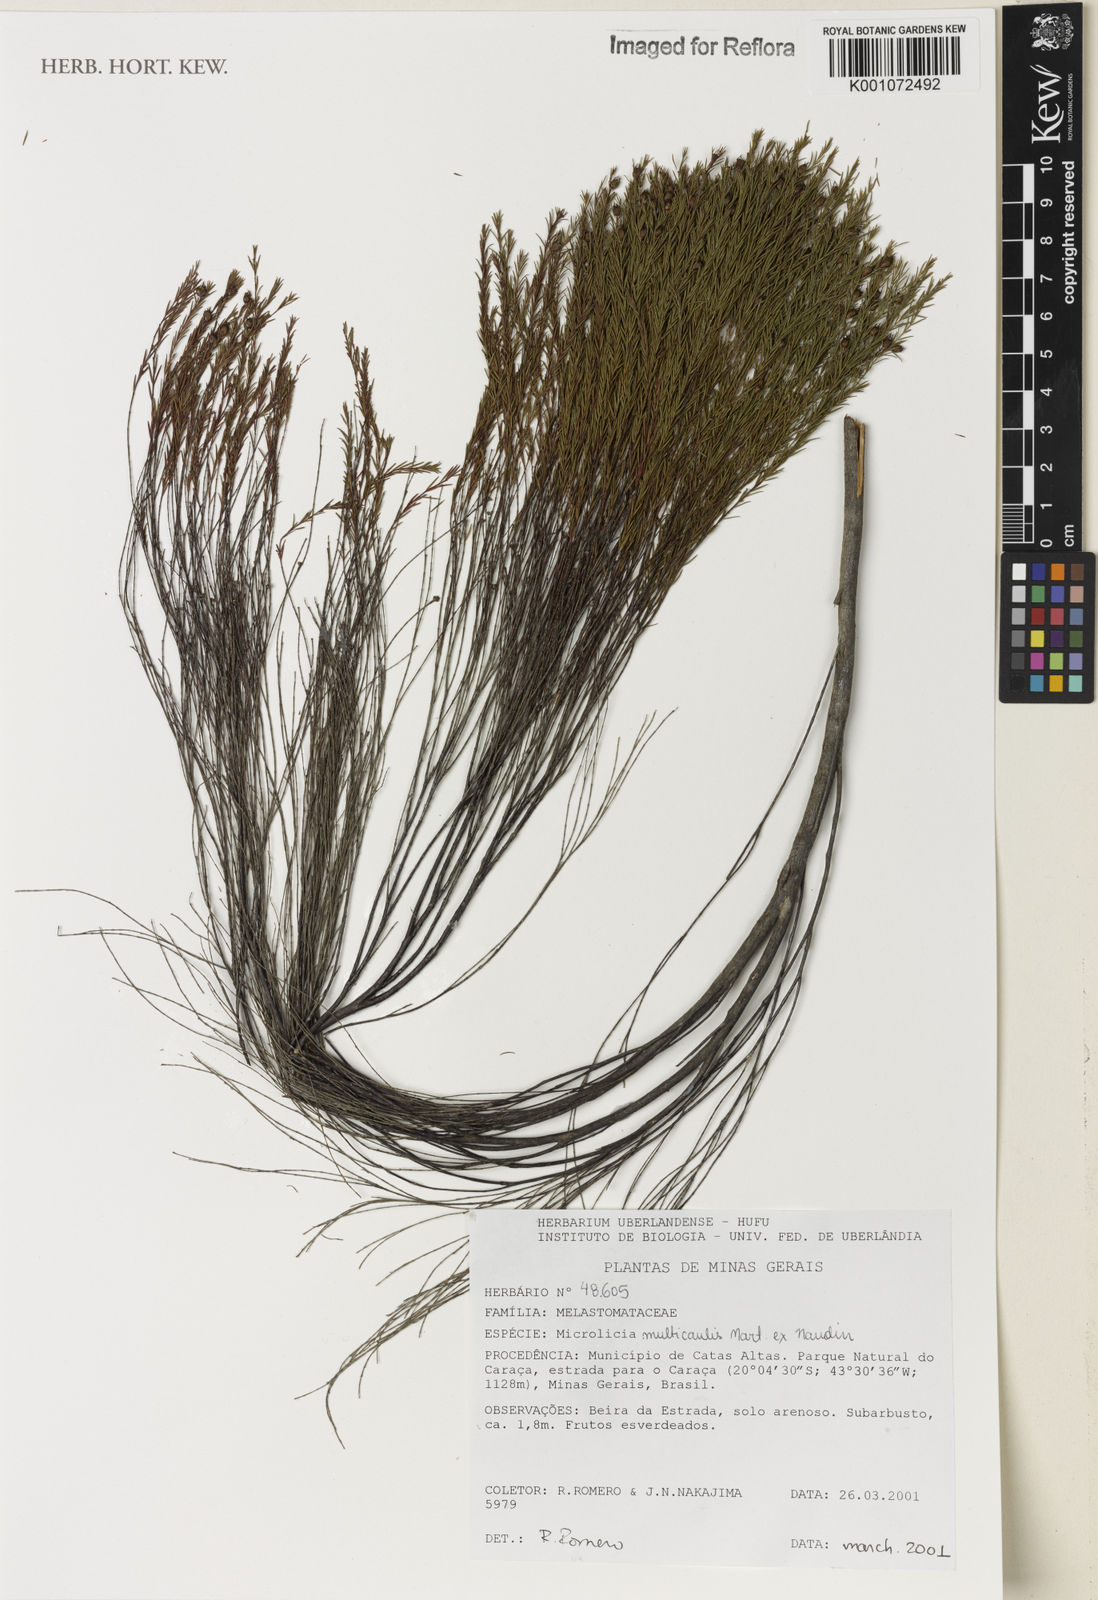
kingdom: Plantae
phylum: Tracheophyta
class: Magnoliopsida
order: Myrtales
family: Melastomataceae
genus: Microlicia
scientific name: Microlicia multicaulis
